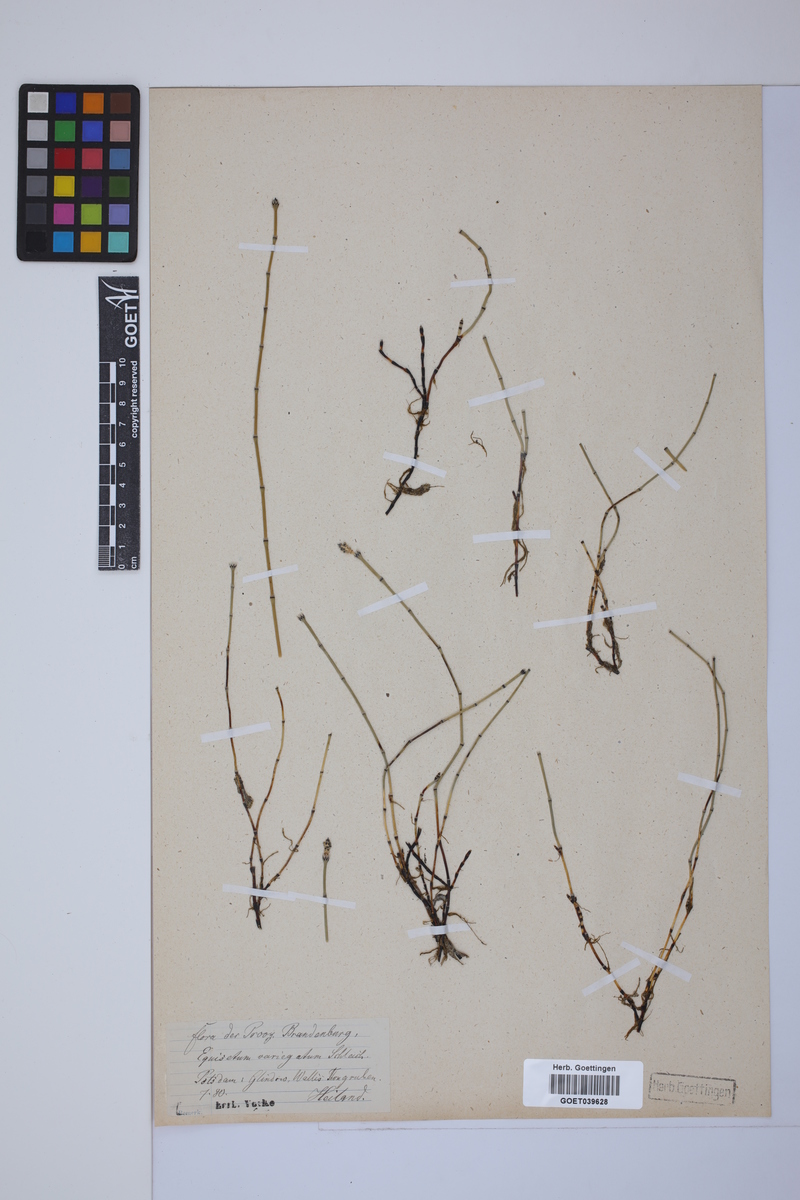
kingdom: Plantae
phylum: Tracheophyta
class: Polypodiopsida
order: Equisetales
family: Equisetaceae
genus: Equisetum
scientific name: Equisetum variegatum
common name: Variegated horsetail
